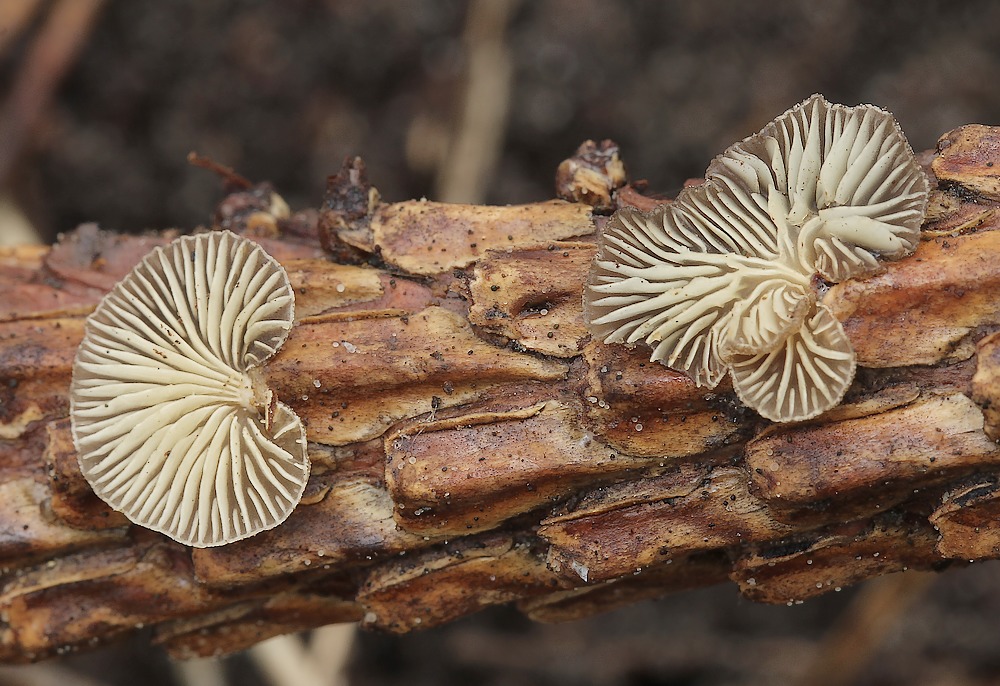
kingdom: Fungi
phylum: Basidiomycota
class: Agaricomycetes
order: Agaricales
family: Pleurotaceae
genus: Hohenbuehelia
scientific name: Hohenbuehelia fluxilis
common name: pile-filthat
